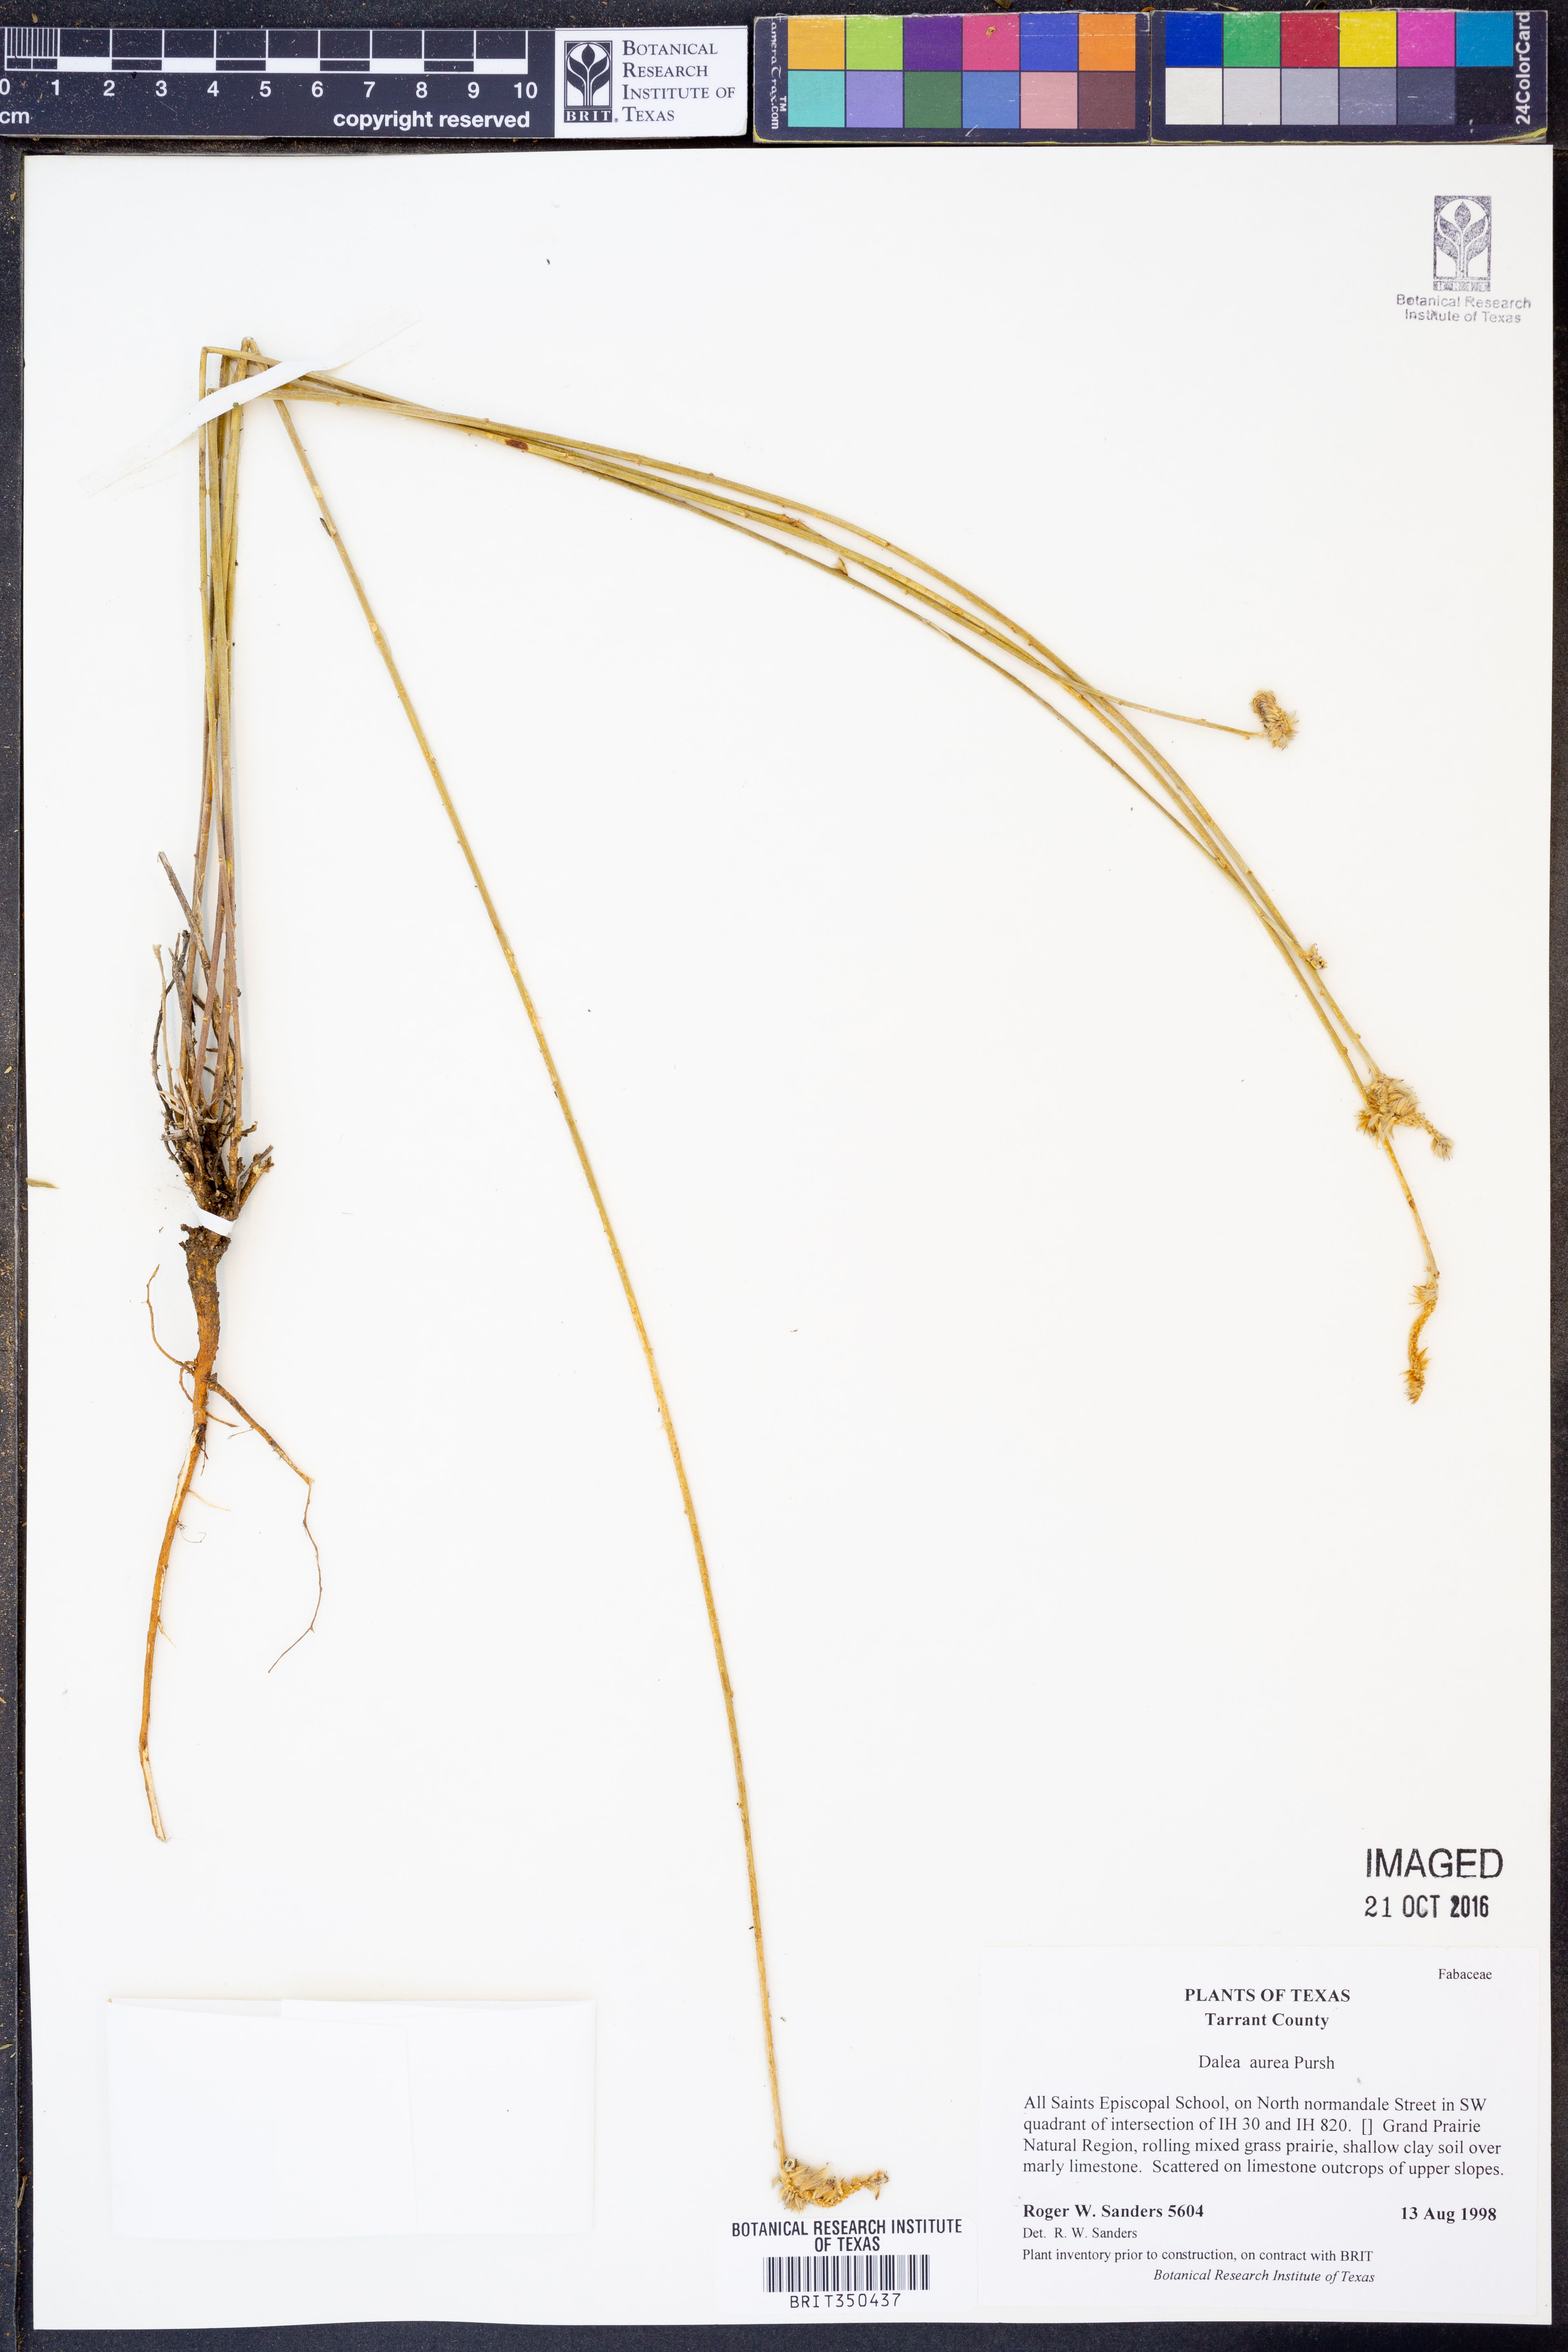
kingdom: Plantae
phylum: Tracheophyta
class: Magnoliopsida
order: Fabales
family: Fabaceae
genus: Dalea
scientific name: Dalea aurea
